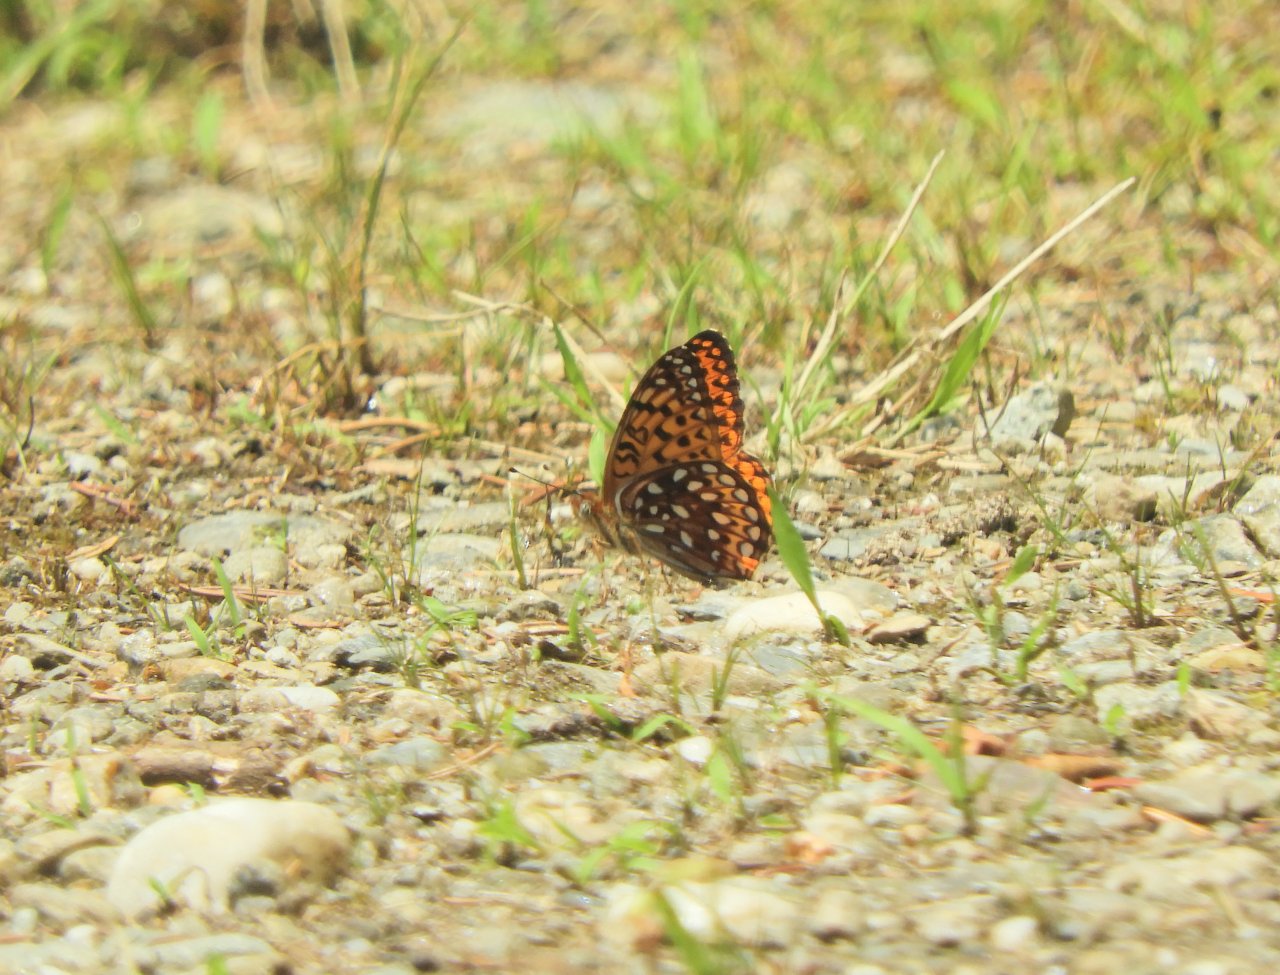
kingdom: Animalia
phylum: Arthropoda
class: Insecta
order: Lepidoptera
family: Nymphalidae
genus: Speyeria
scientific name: Speyeria atlantis
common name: Atlantis Fritillary
